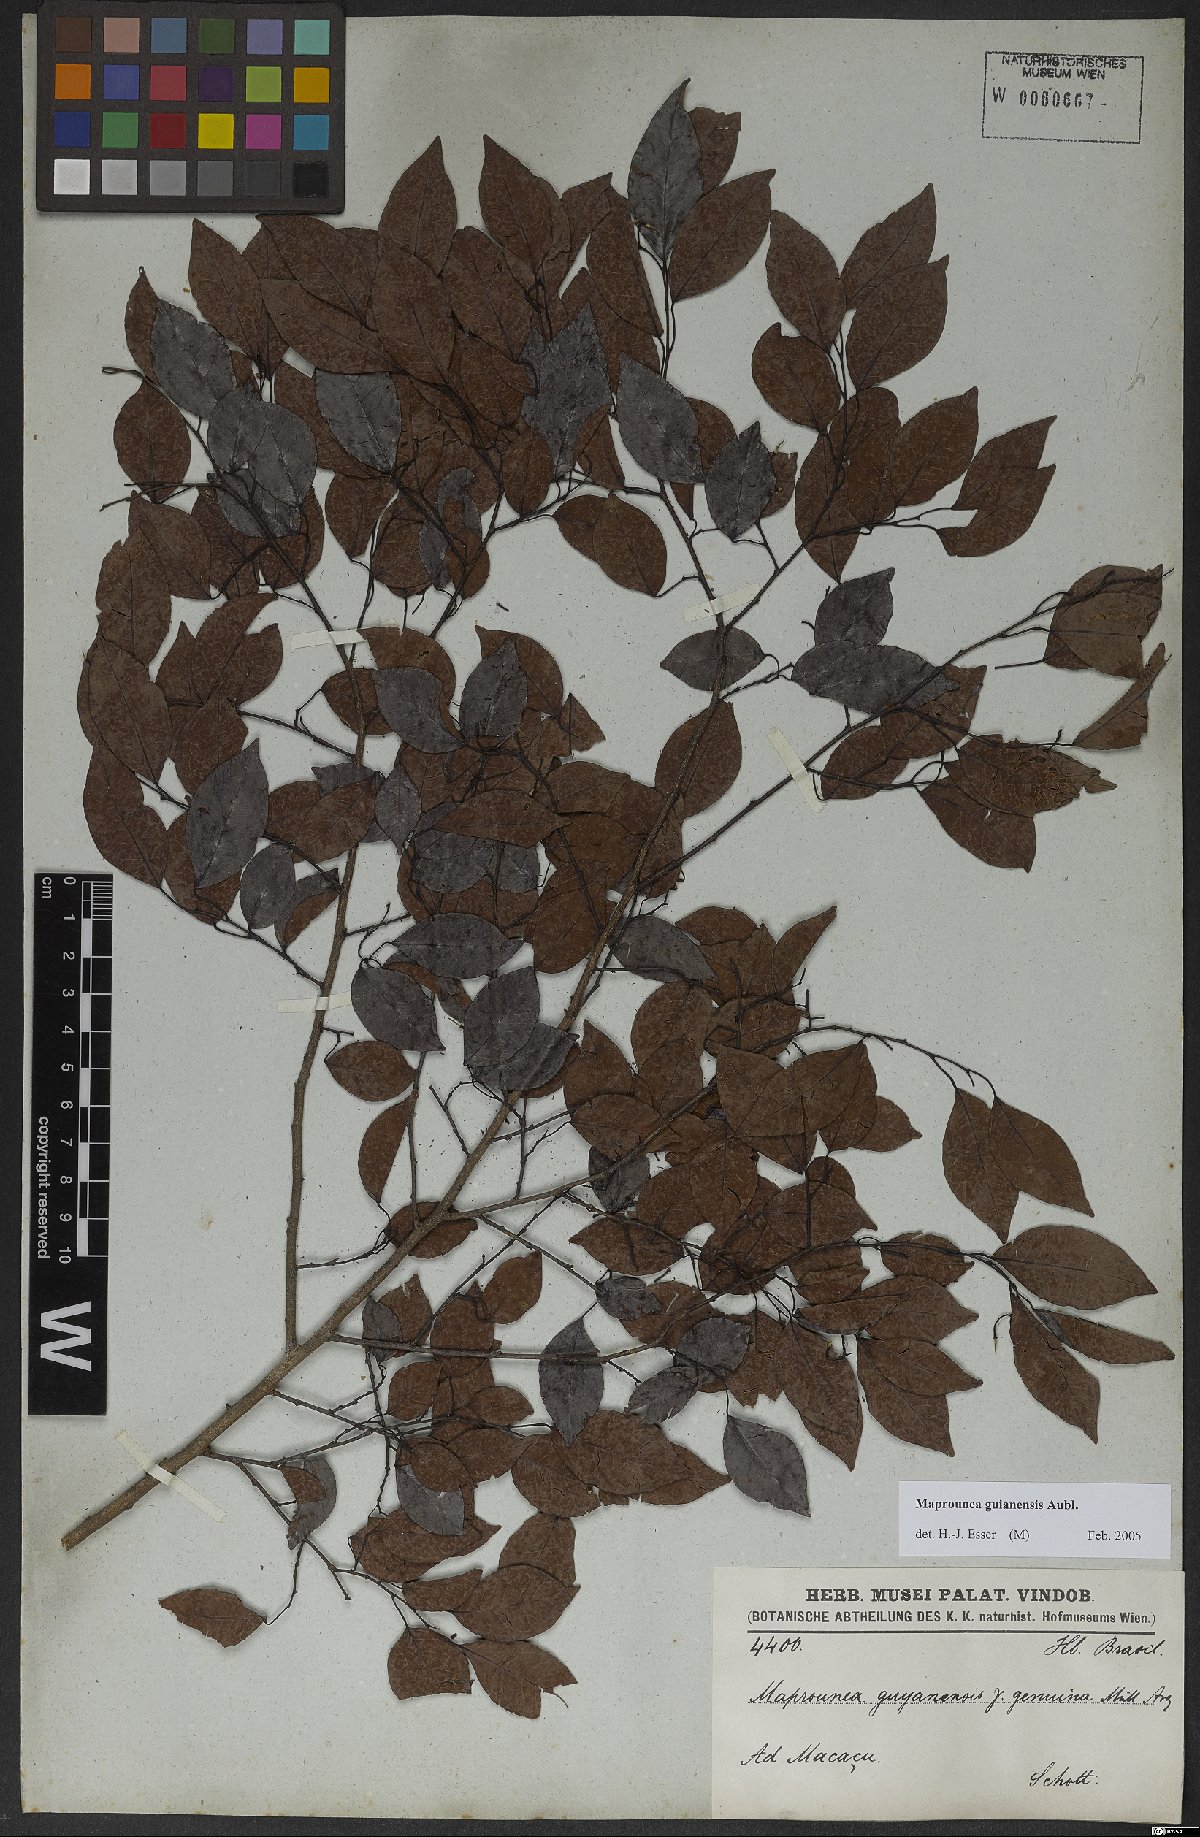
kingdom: Plantae
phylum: Tracheophyta
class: Magnoliopsida
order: Malpighiales
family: Euphorbiaceae
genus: Maprounea
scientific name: Maprounea guianensis
